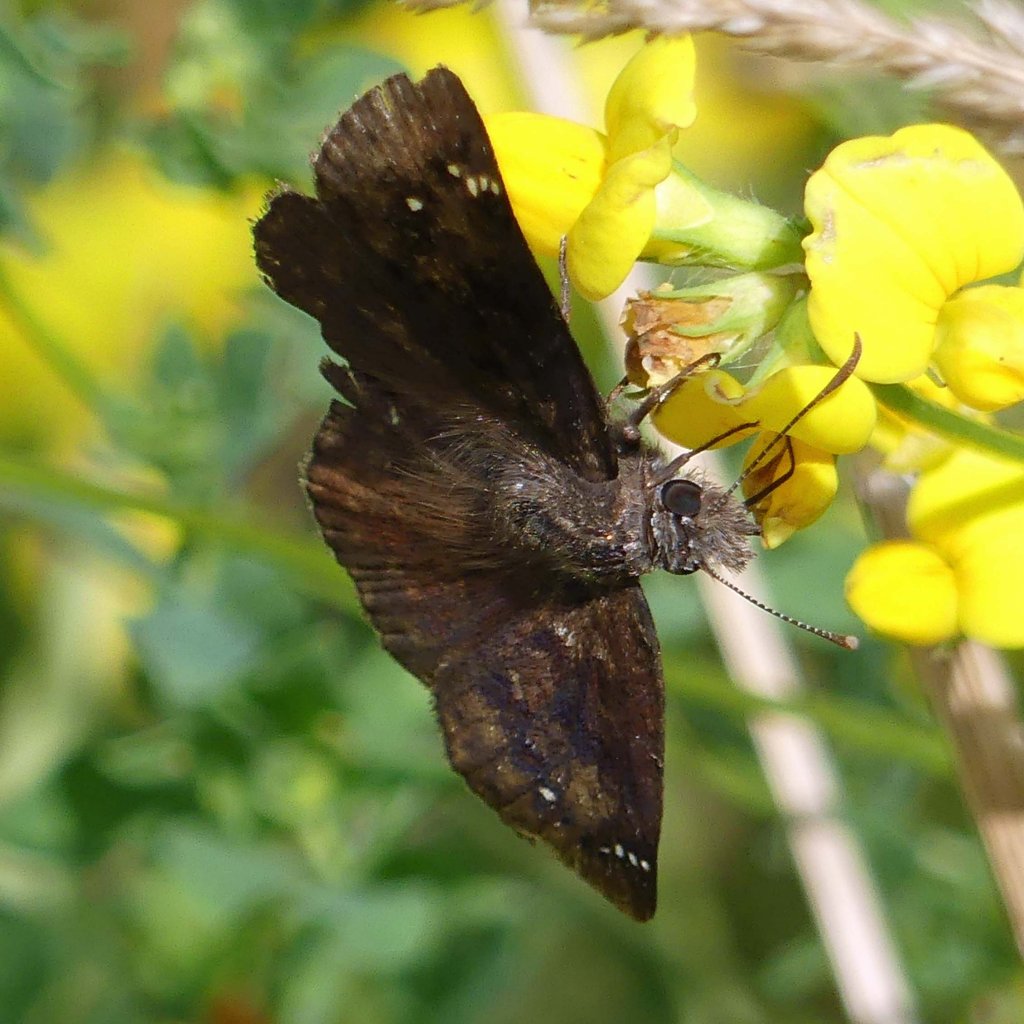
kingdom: Animalia
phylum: Arthropoda
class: Insecta
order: Lepidoptera
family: Hesperiidae
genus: Gesta
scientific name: Gesta
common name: Wild Indigo Duskywing
